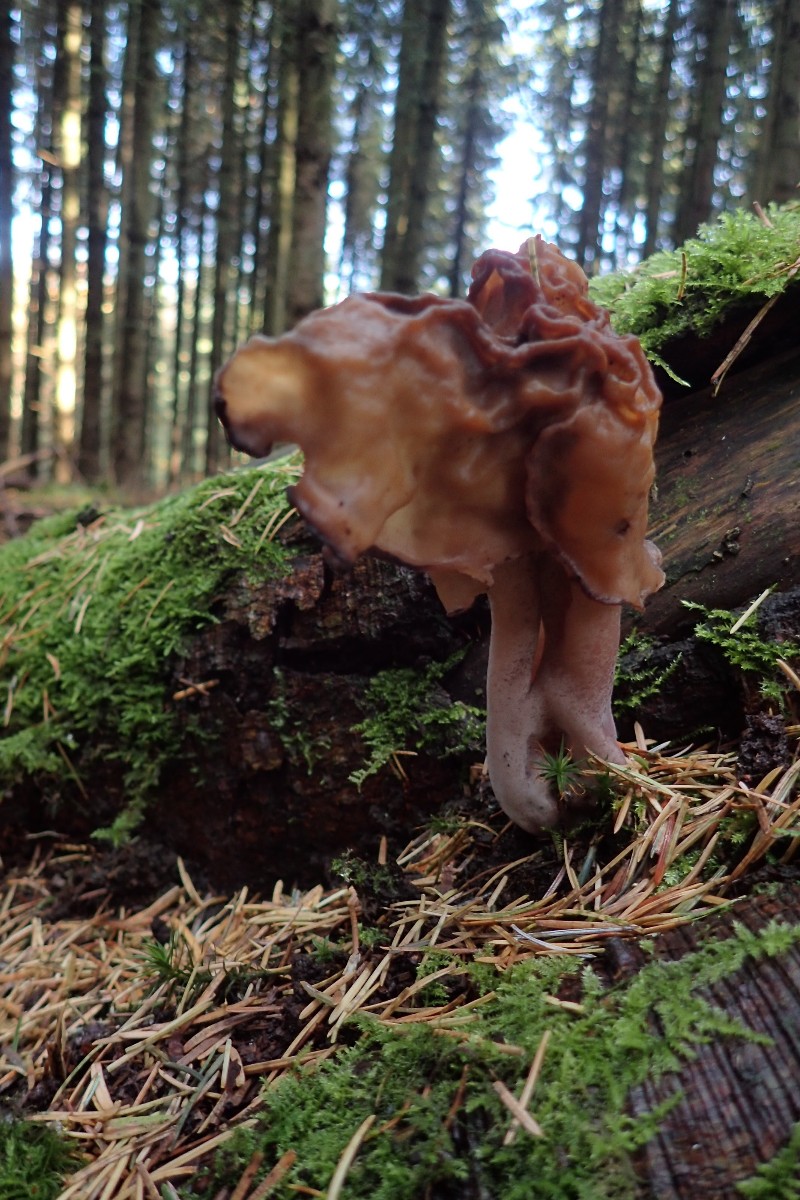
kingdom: Fungi
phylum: Ascomycota
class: Pezizomycetes
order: Pezizales
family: Discinaceae
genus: Gyromitra
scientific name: Gyromitra infula
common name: bispehue-stenmorkel
